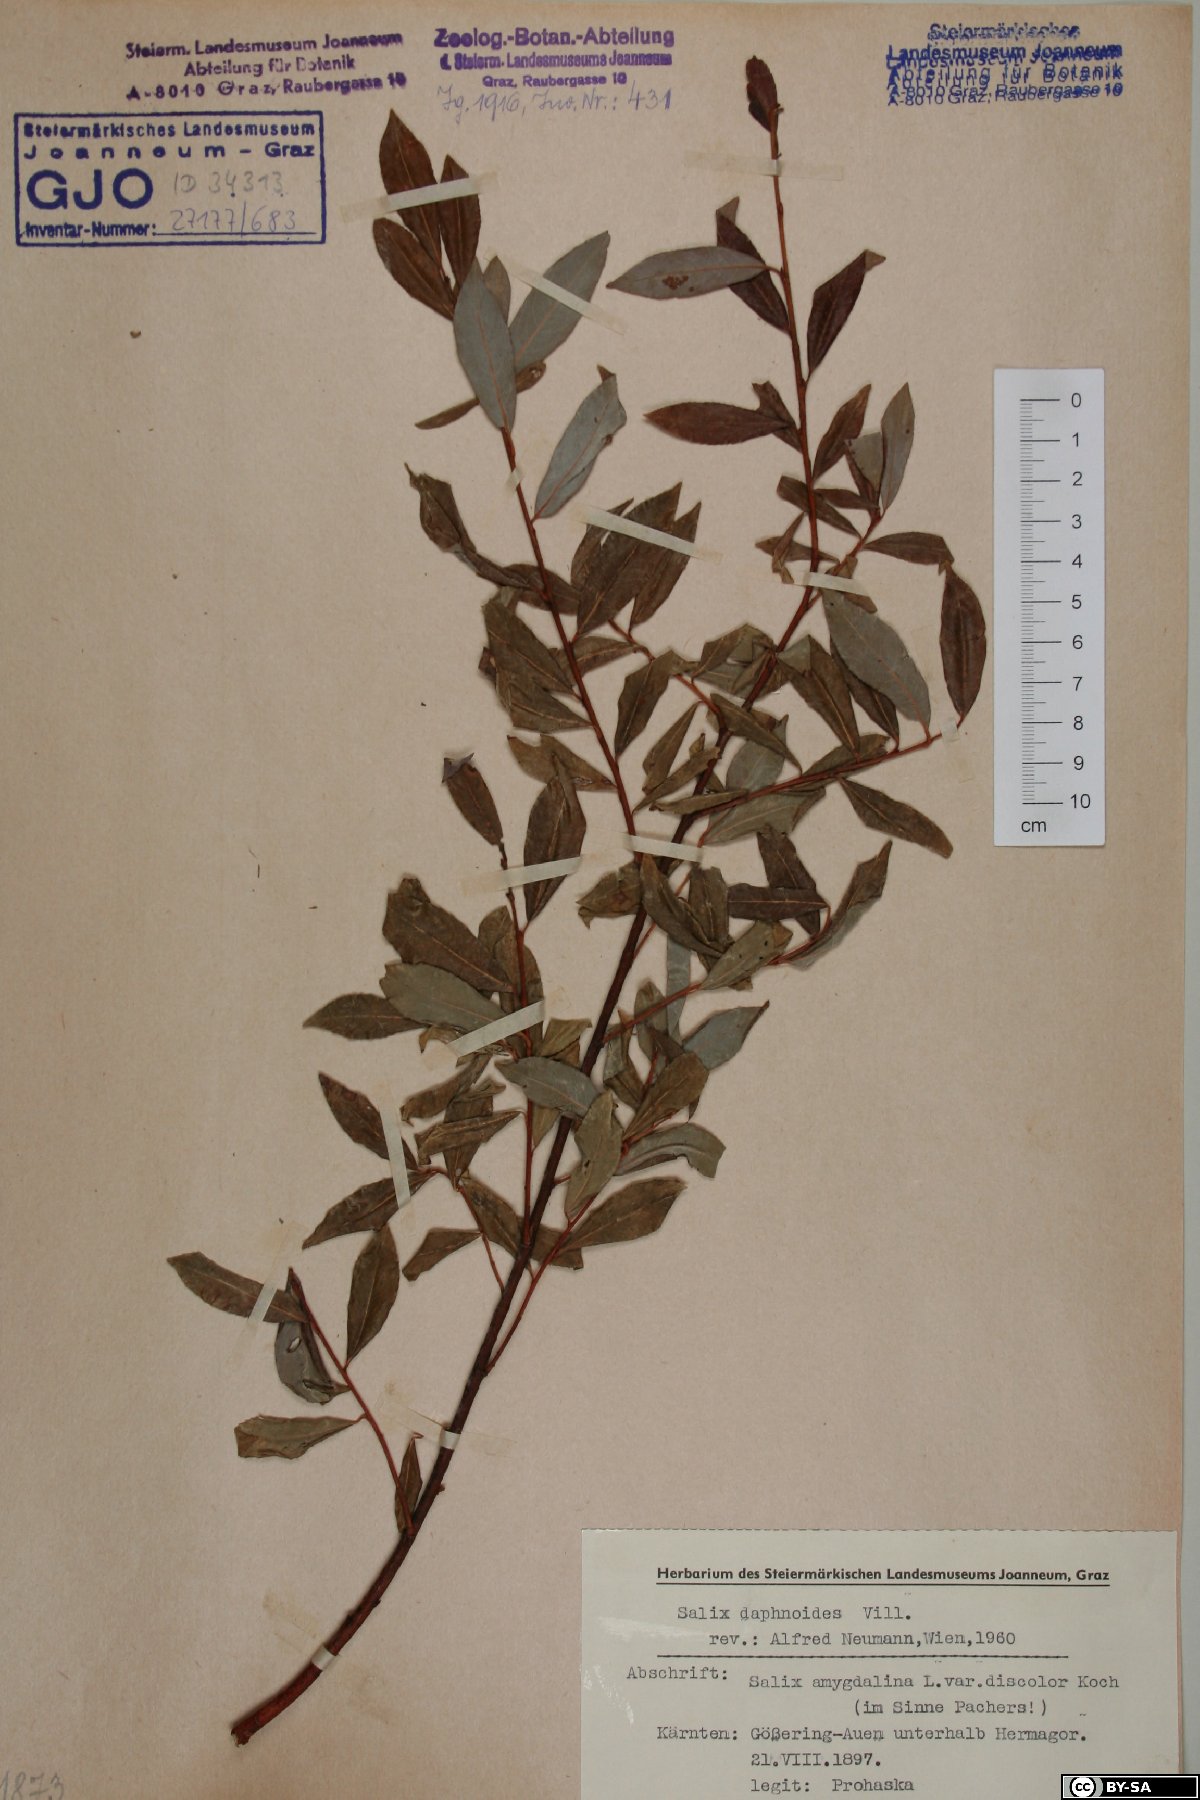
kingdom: Plantae
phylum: Tracheophyta
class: Magnoliopsida
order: Malpighiales
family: Salicaceae
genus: Salix
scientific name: Salix daphnoides
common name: European violet-willow
